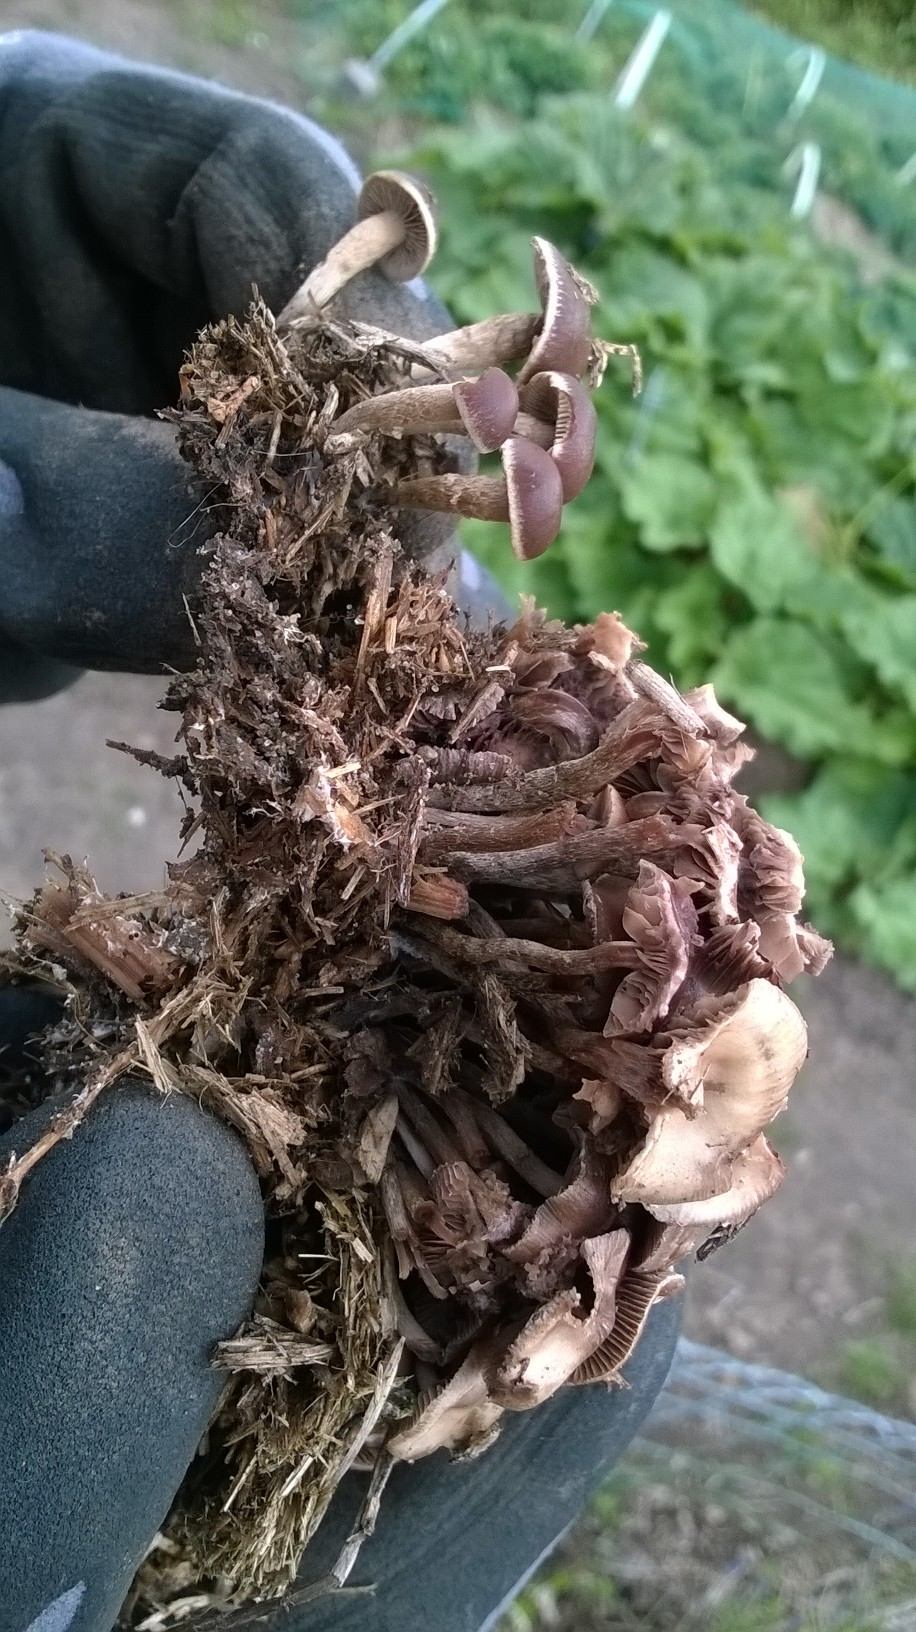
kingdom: Fungi
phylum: Basidiomycota
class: Agaricomycetes
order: Agaricales
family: Strophariaceae
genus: Deconica
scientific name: Deconica crobula
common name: træflis-stråhat
